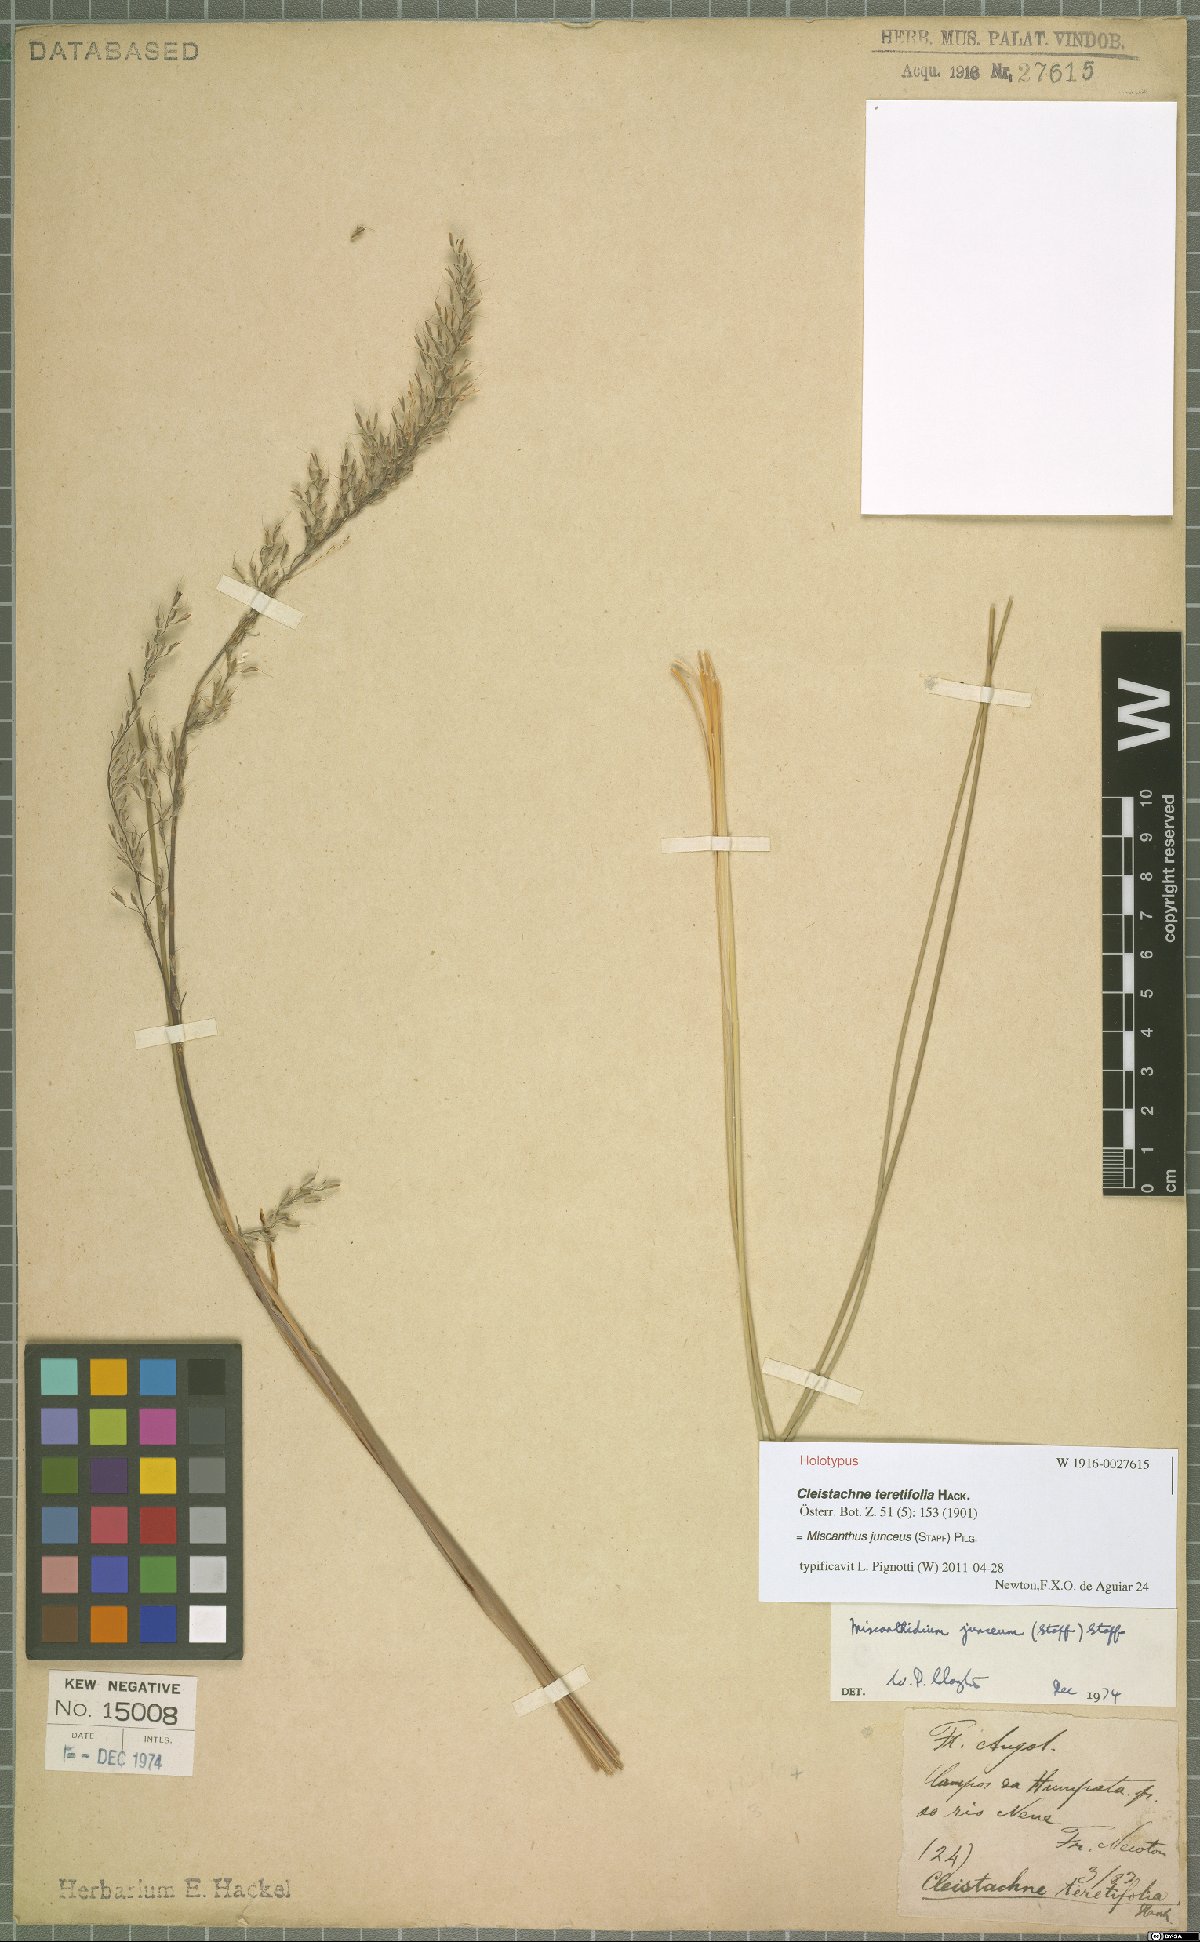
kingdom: Plantae
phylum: Tracheophyta
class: Liliopsida
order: Poales
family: Poaceae
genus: Miscanthidium
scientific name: Miscanthidium junceum
